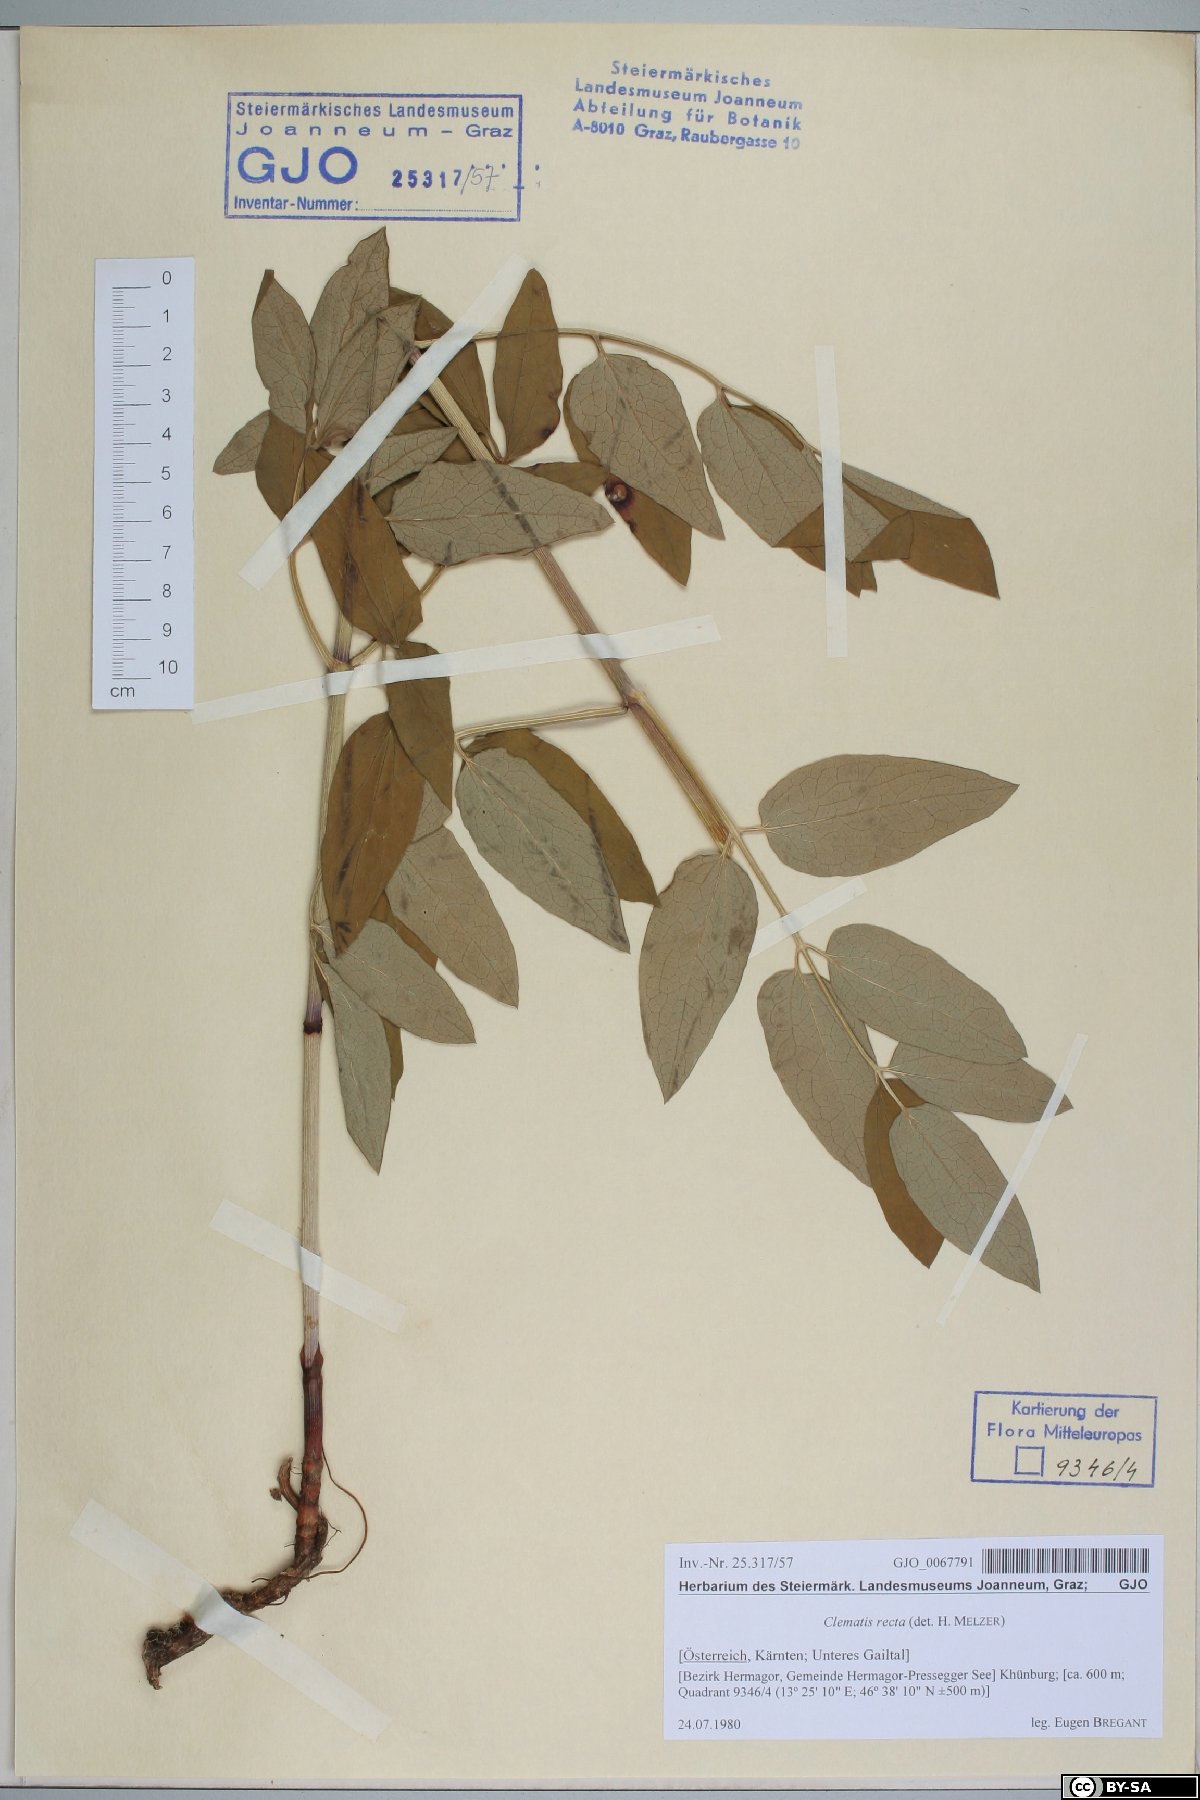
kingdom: Plantae
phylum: Tracheophyta
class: Magnoliopsida
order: Ranunculales
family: Ranunculaceae
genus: Clematis
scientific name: Clematis recta
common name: Ground clematis
